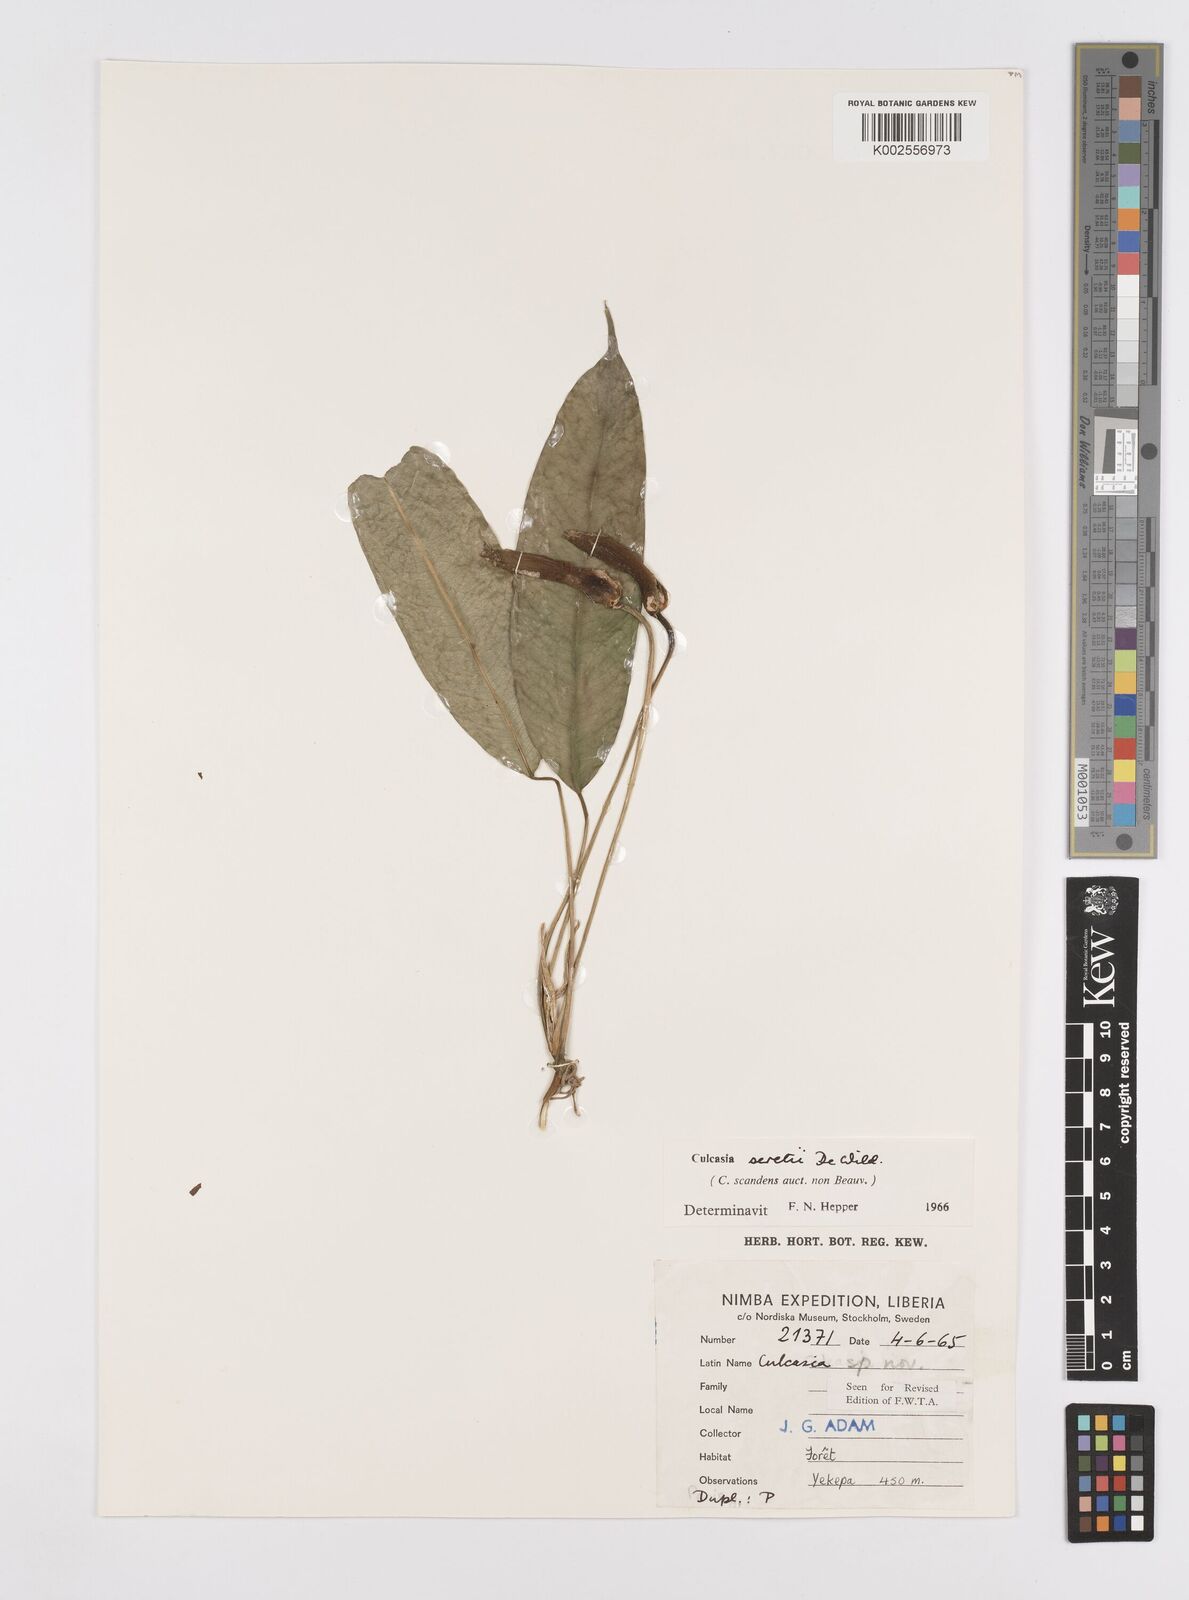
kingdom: Plantae
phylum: Tracheophyta
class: Liliopsida
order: Alismatales
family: Araceae
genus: Culcasia
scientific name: Culcasia seretii
